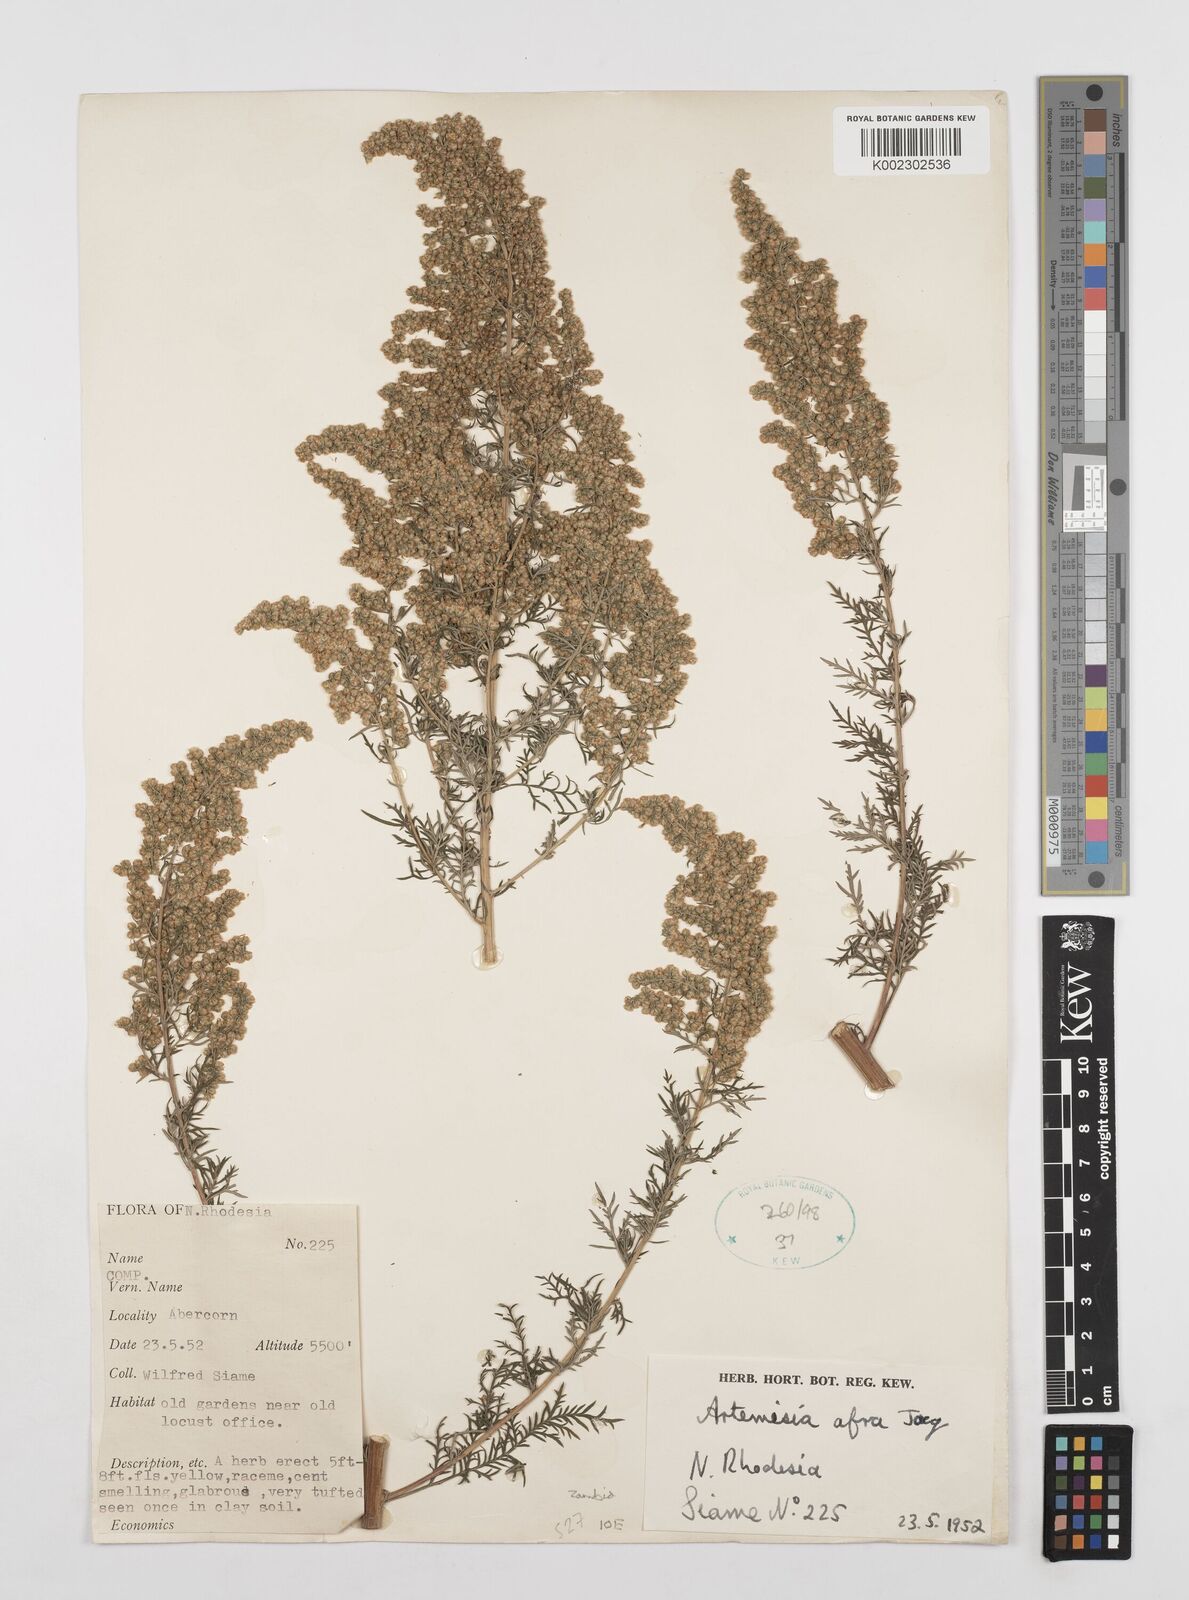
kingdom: Plantae
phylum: Tracheophyta
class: Magnoliopsida
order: Asterales
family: Asteraceae
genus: Artemisia
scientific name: Artemisia afra
